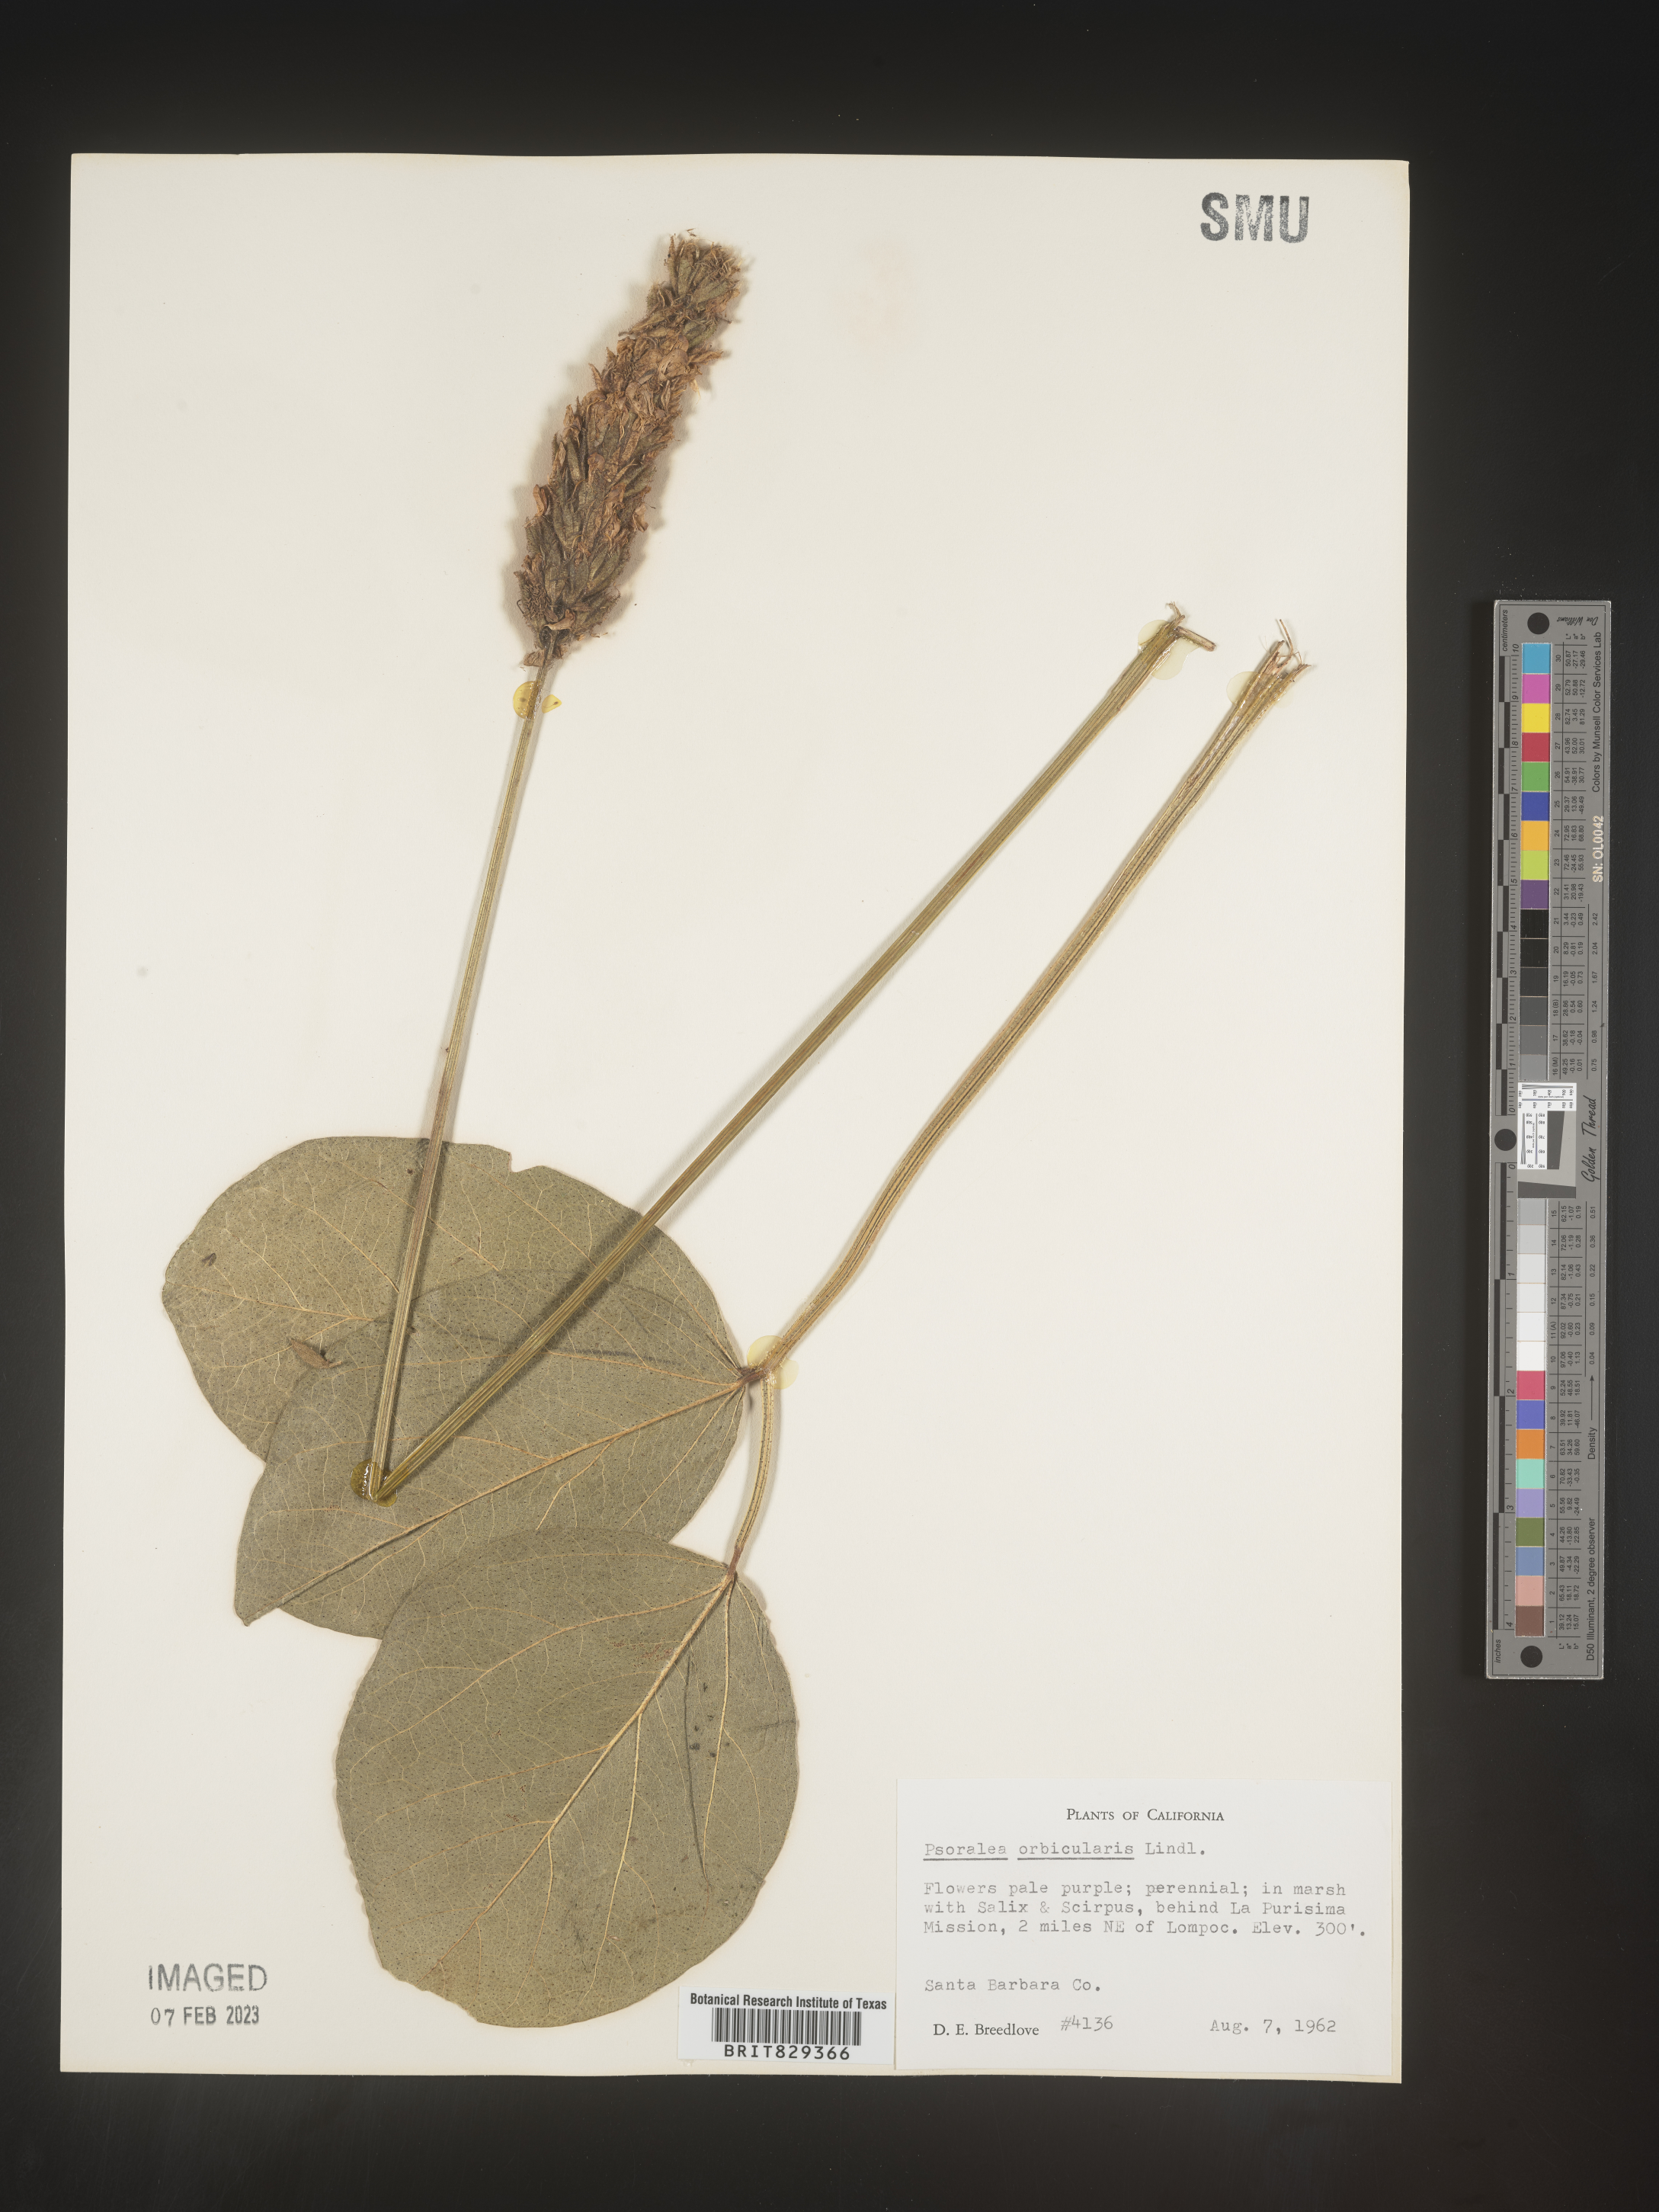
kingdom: Plantae
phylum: Tracheophyta
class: Magnoliopsida
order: Fabales
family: Fabaceae
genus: Psoralea
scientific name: Psoralea
